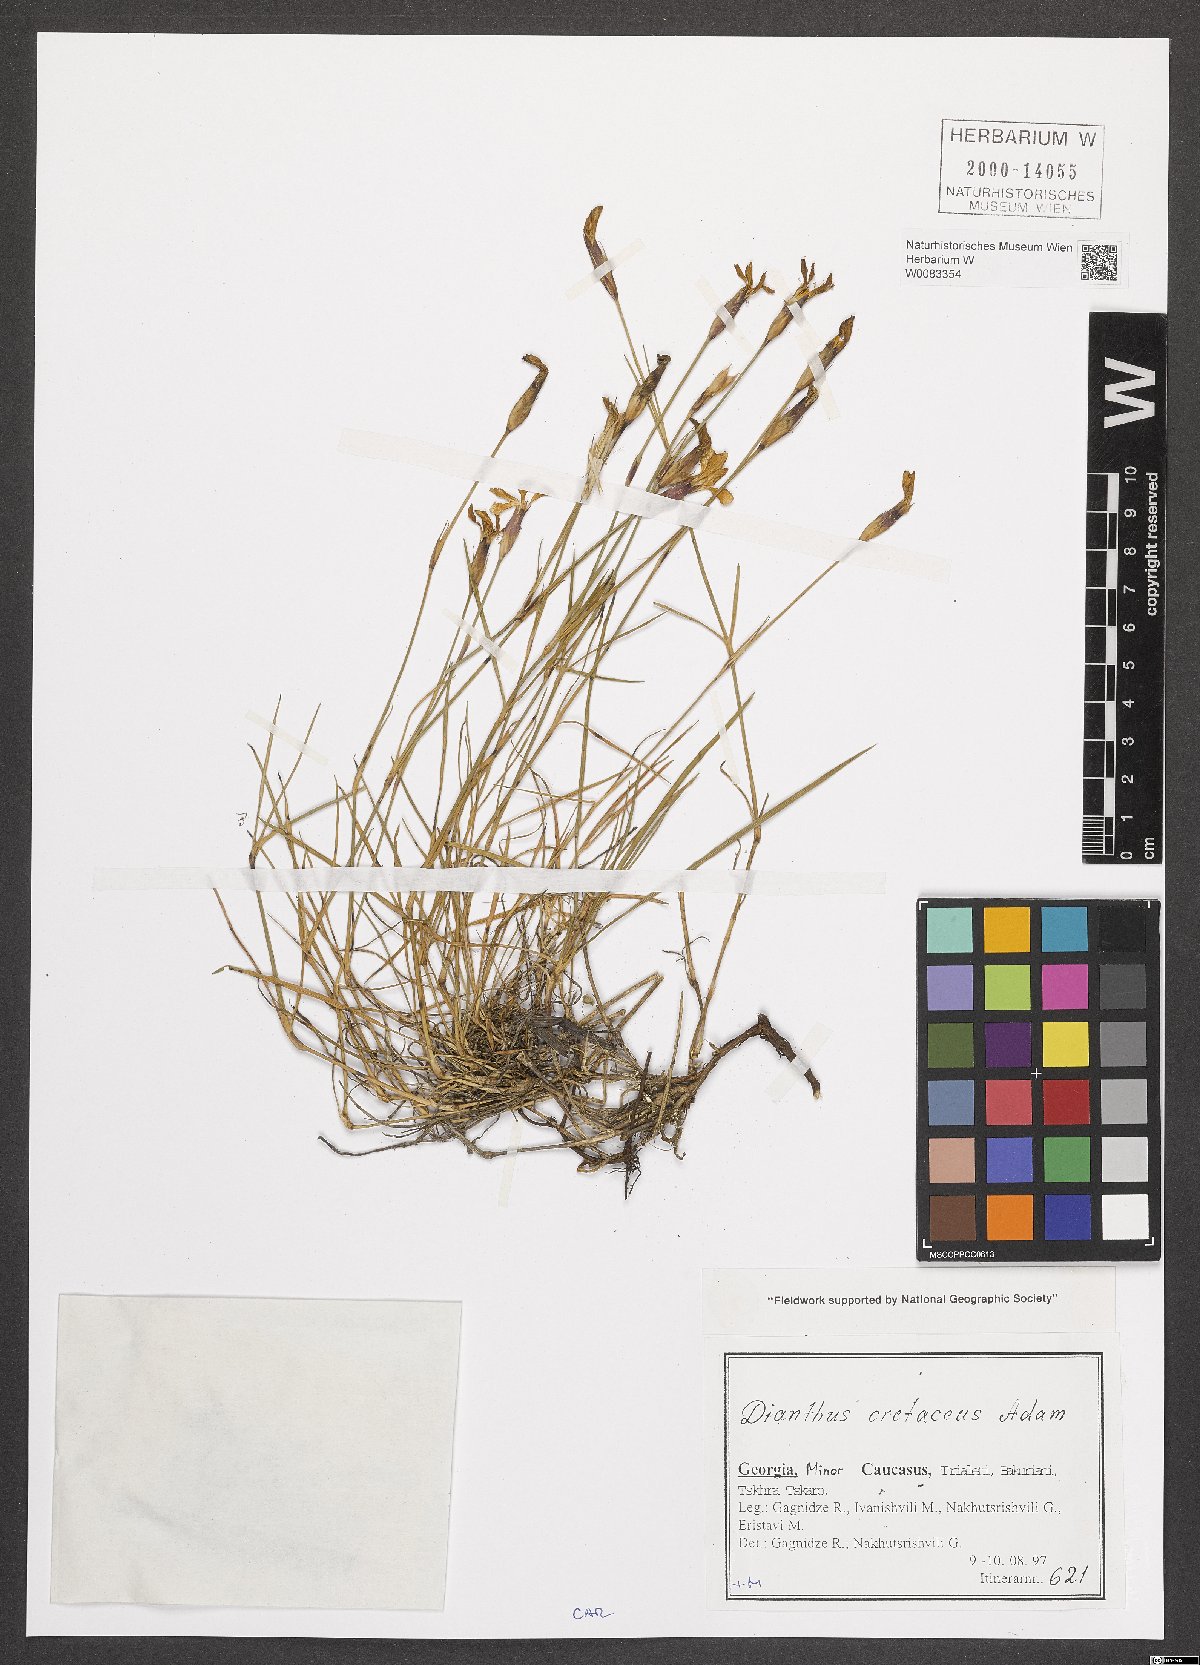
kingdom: Plantae
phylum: Tracheophyta
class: Magnoliopsida
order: Caryophyllales
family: Caryophyllaceae
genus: Dianthus
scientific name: Dianthus cretaceus
